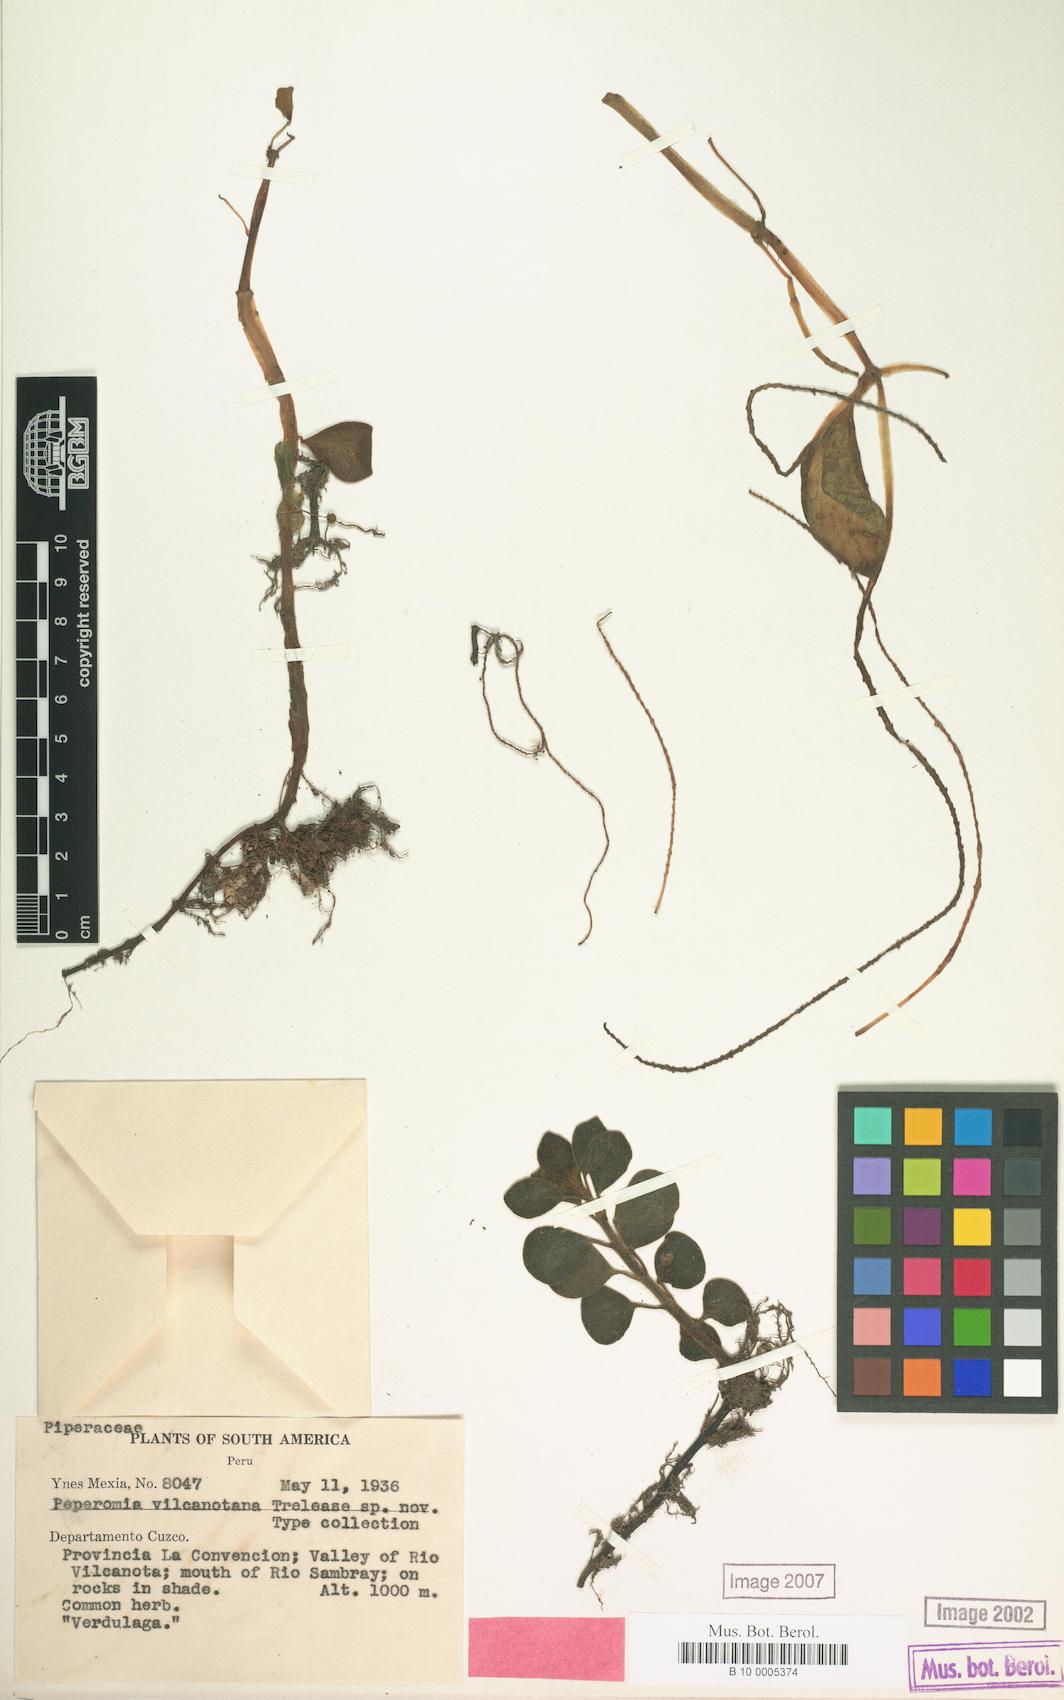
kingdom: Plantae
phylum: Tracheophyta
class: Magnoliopsida
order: Piperales
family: Piperaceae
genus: Peperomia
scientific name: Peperomia
